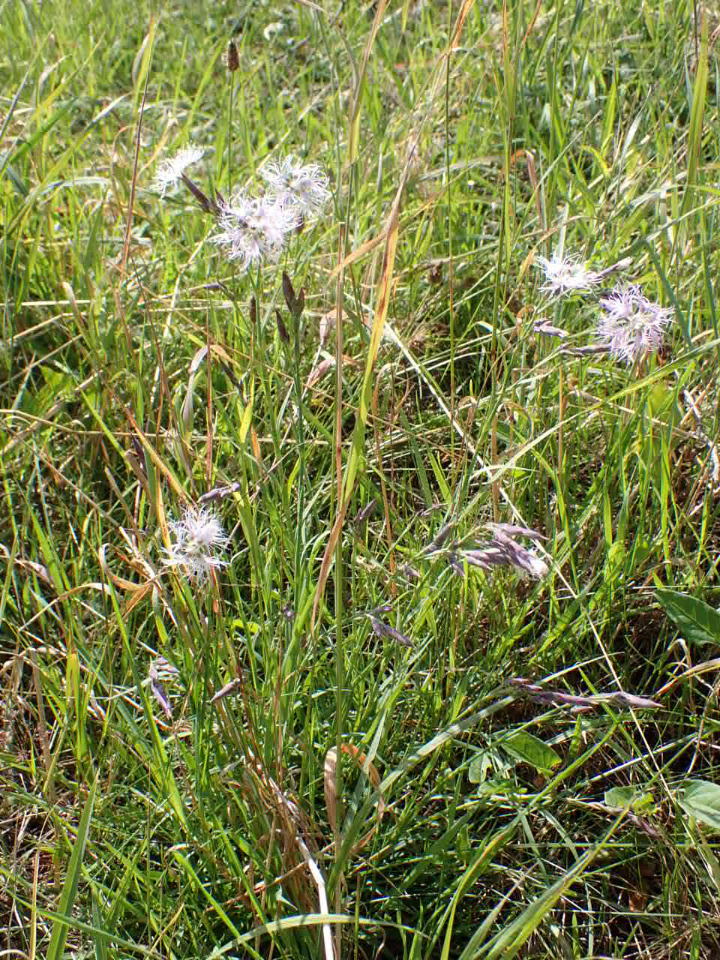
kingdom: Plantae
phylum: Tracheophyta
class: Magnoliopsida
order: Caryophyllales
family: Caryophyllaceae
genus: Dianthus
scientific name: Dianthus superbus
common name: Strand-nellike
